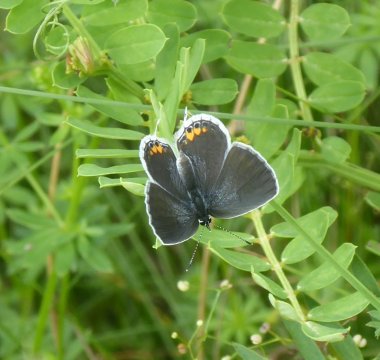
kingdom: Animalia
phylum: Arthropoda
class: Insecta
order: Lepidoptera
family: Lycaenidae
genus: Elkalyce
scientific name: Elkalyce comyntas
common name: Eastern Tailed-Blue
